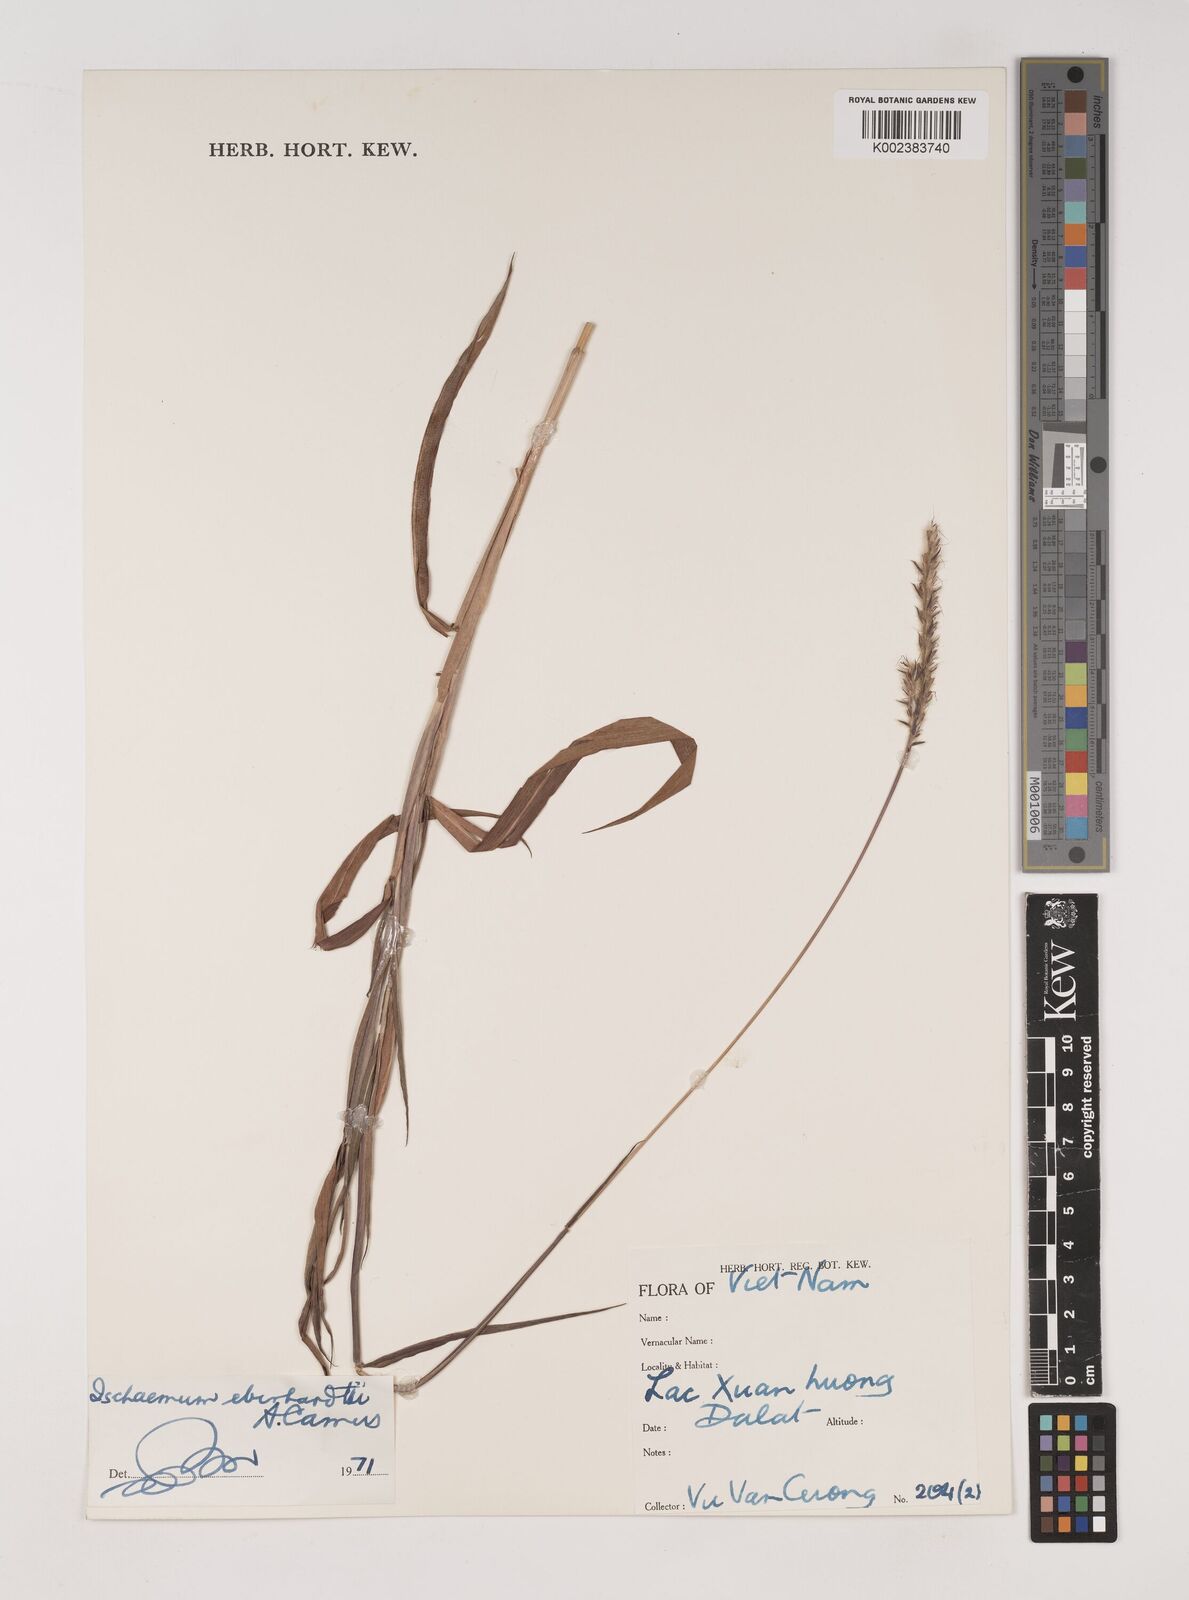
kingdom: Plantae
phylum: Tracheophyta
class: Liliopsida
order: Poales
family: Poaceae
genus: Ischaemum
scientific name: Ischaemum eberhardtii
